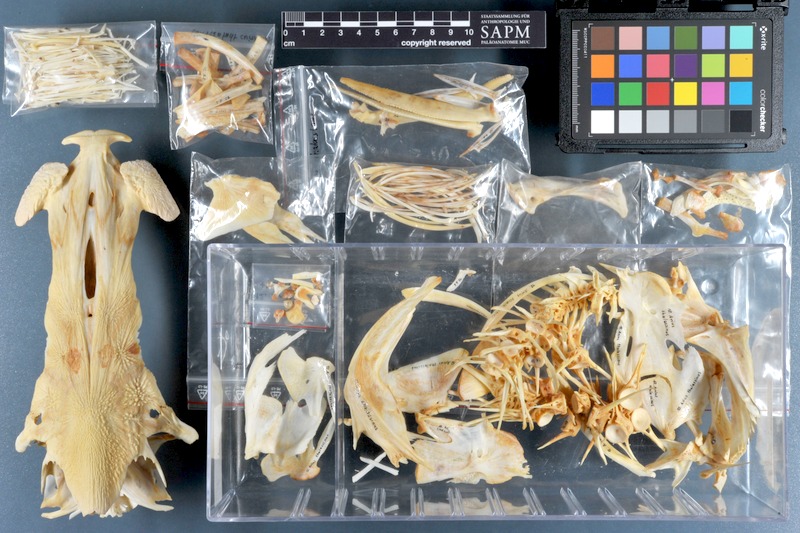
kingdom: Animalia
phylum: Chordata
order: Siluriformes
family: Ariidae
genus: Netuma
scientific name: Netuma thalassina
